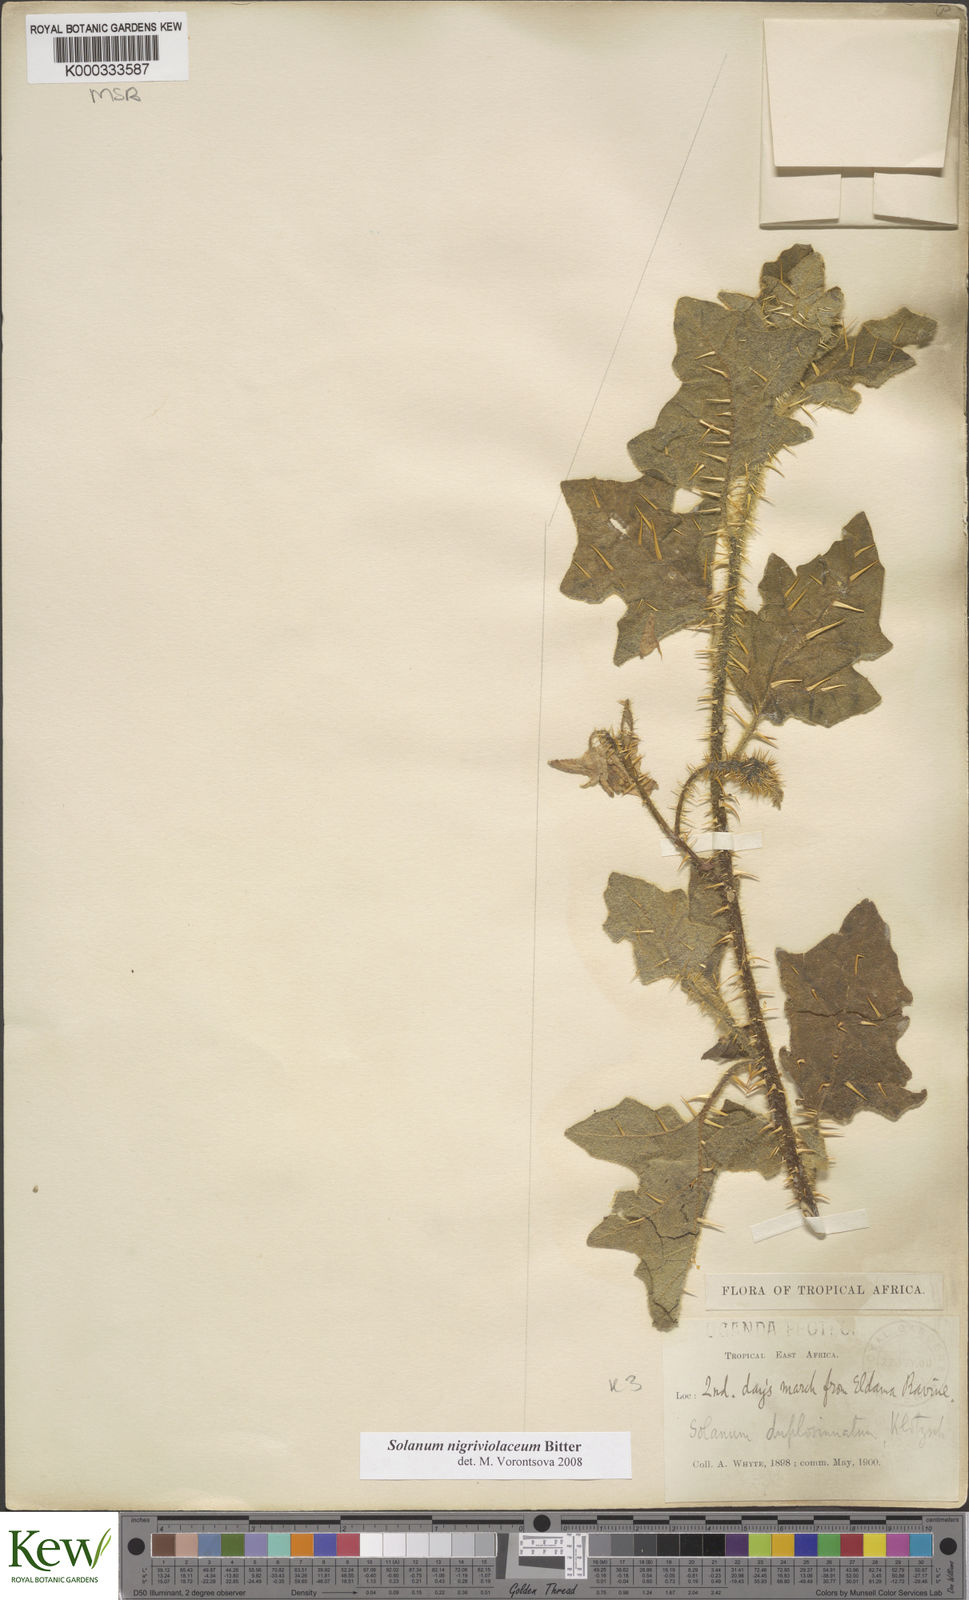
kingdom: Plantae
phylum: Tracheophyta
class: Magnoliopsida
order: Solanales
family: Solanaceae
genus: Solanum
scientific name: Solanum nigriviolaceum
